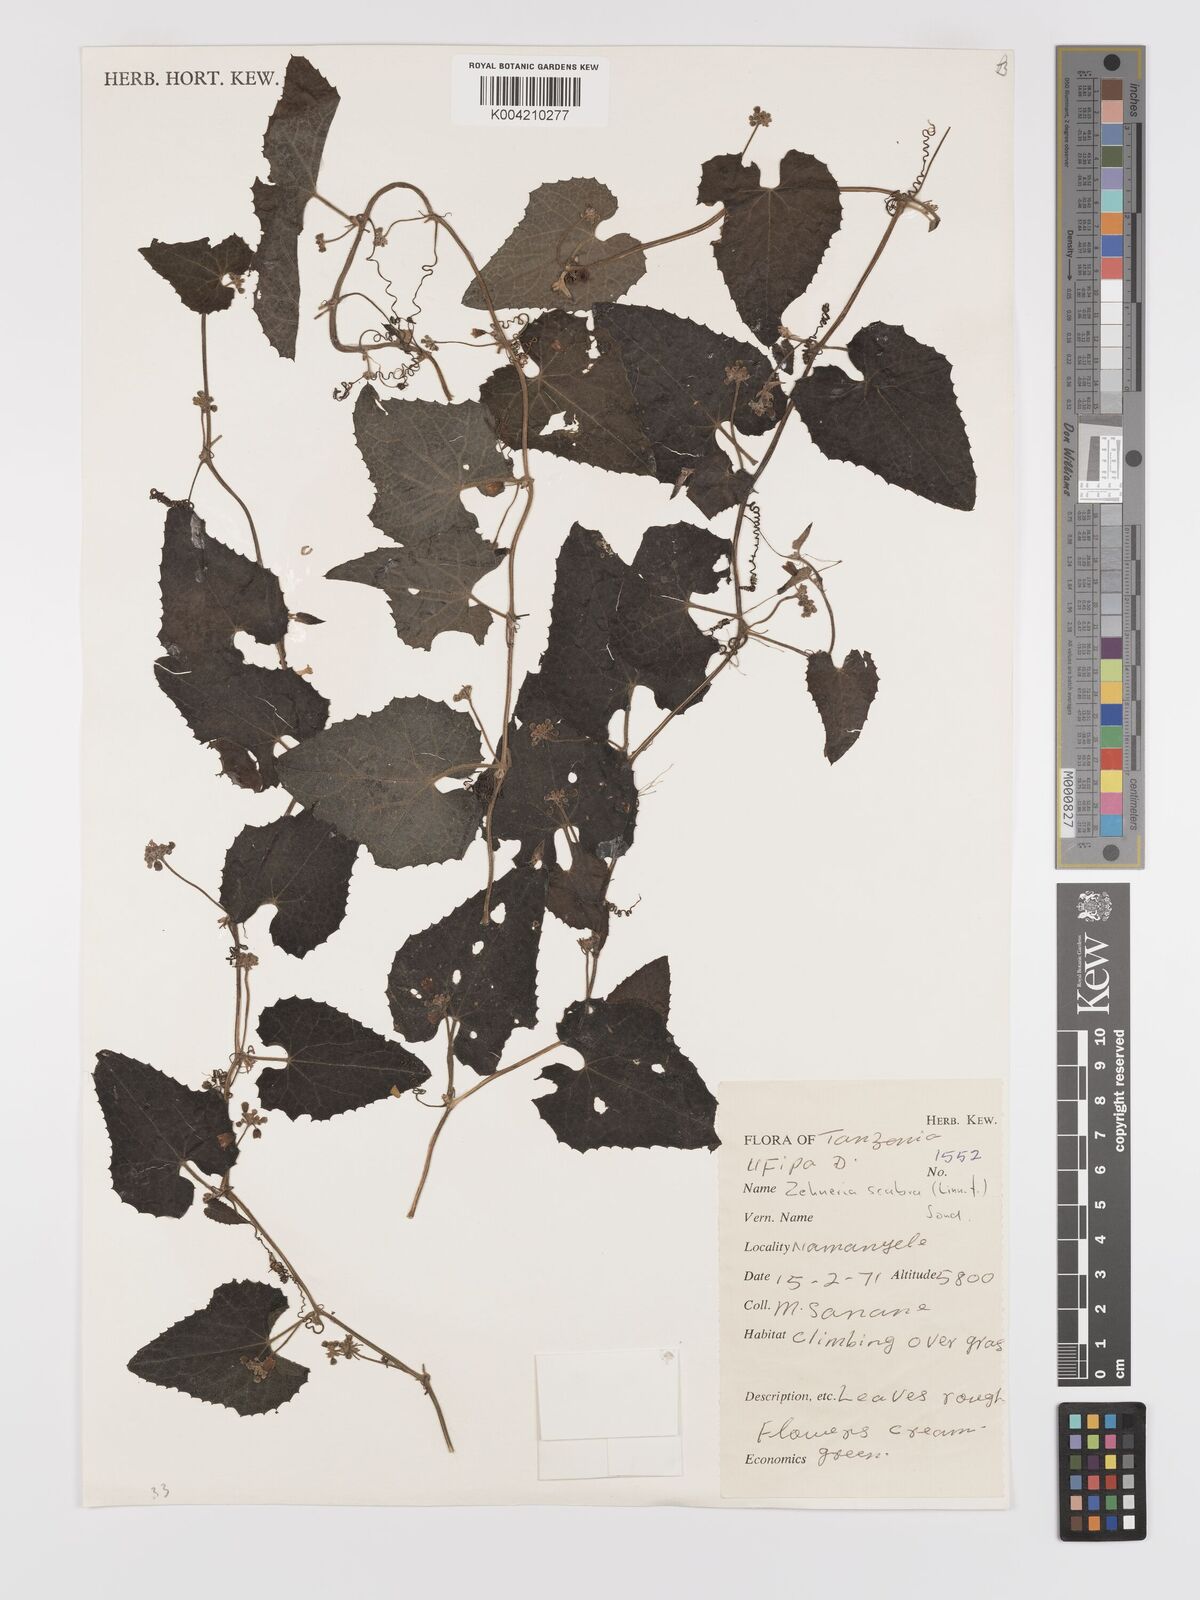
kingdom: Plantae
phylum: Tracheophyta
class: Magnoliopsida
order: Cucurbitales
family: Cucurbitaceae
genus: Zehneria
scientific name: Zehneria scabra
